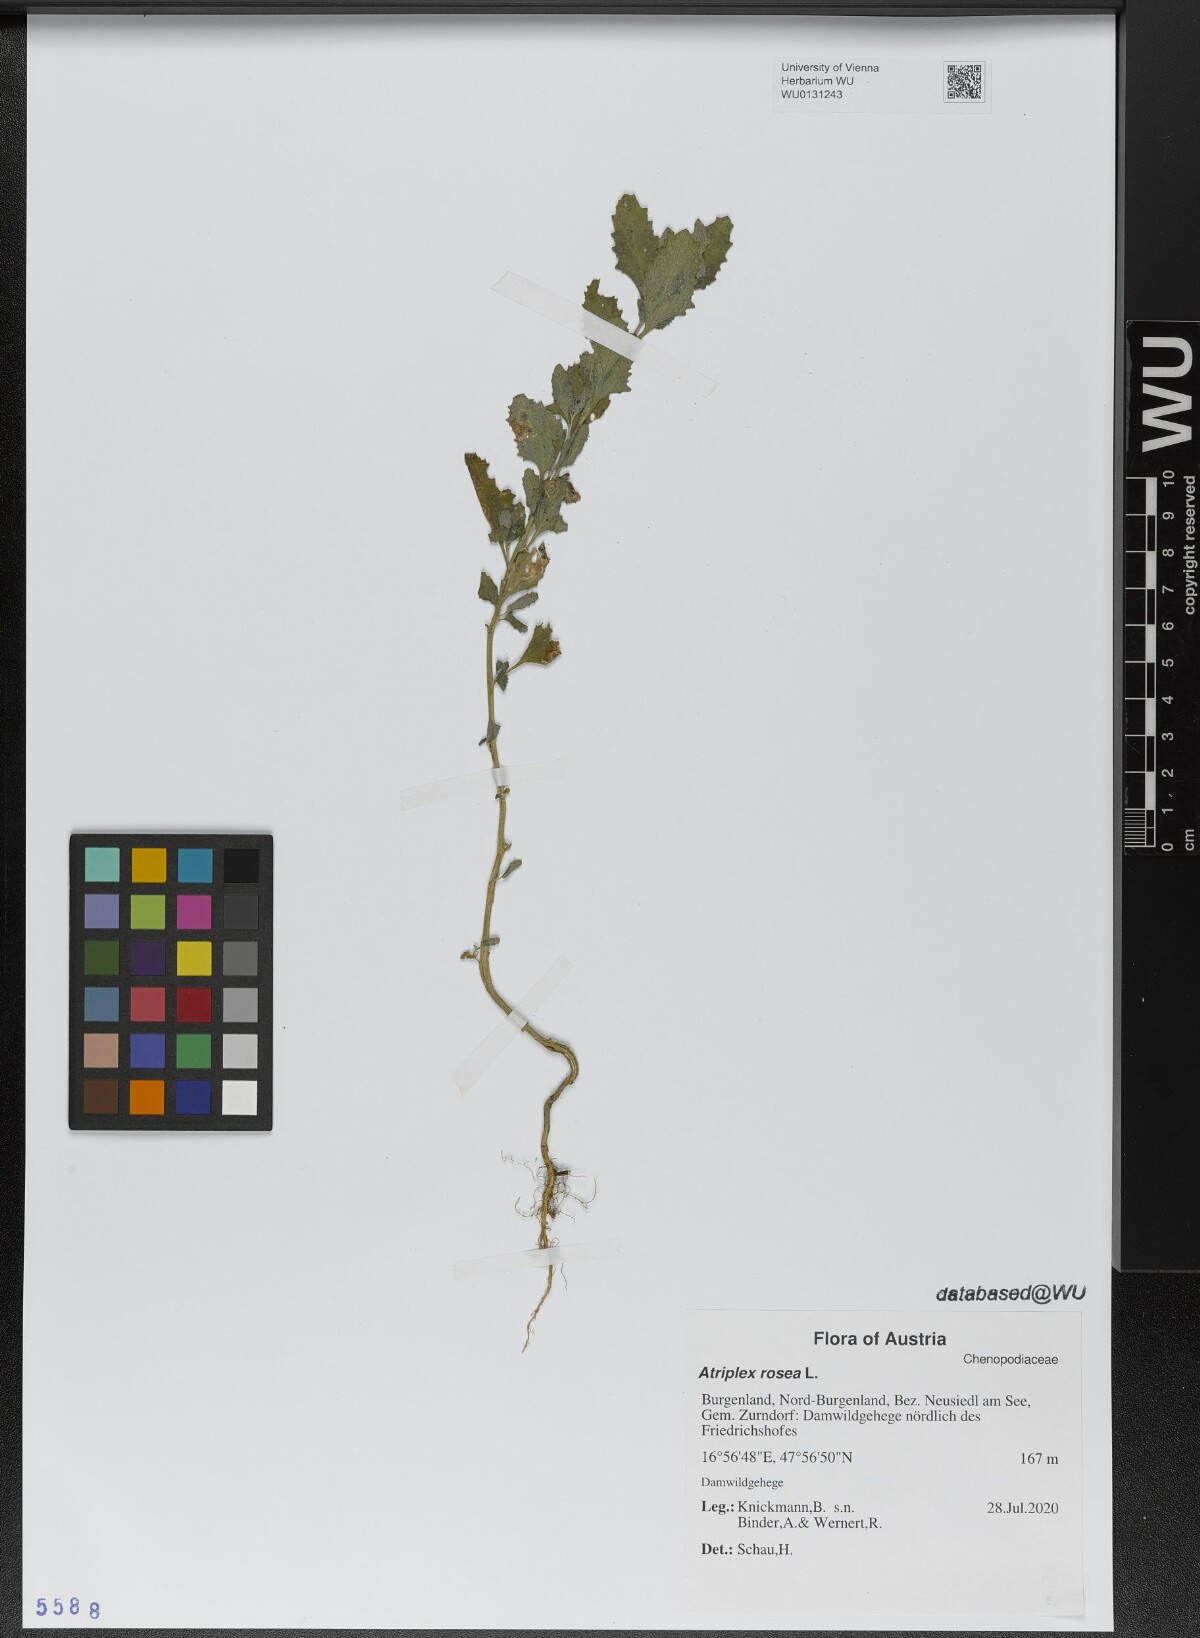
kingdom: Plantae
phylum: Tracheophyta
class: Magnoliopsida
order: Caryophyllales
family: Amaranthaceae
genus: Atriplex
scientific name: Atriplex rosea
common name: Tumbling saltweed
